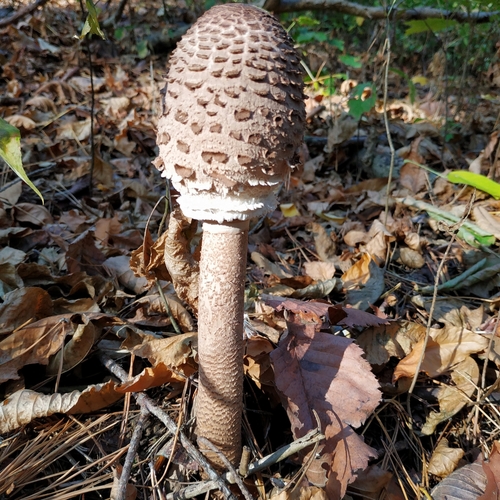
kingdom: Fungi
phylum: Basidiomycota
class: Agaricomycetes
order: Agaricales
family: Agaricaceae
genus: Macrolepiota
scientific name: Macrolepiota procera
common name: Parasol
